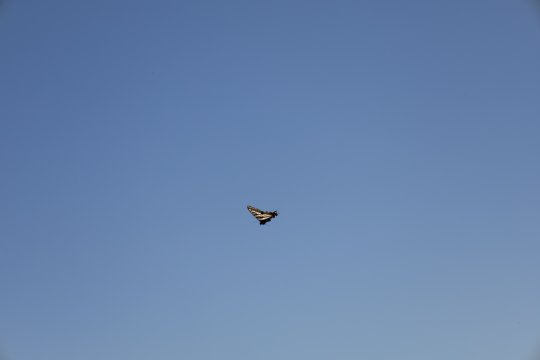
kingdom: Animalia
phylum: Arthropoda
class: Insecta
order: Lepidoptera
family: Papilionidae
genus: Pterourus
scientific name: Pterourus eurymedon
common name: Pale Swallowtail
